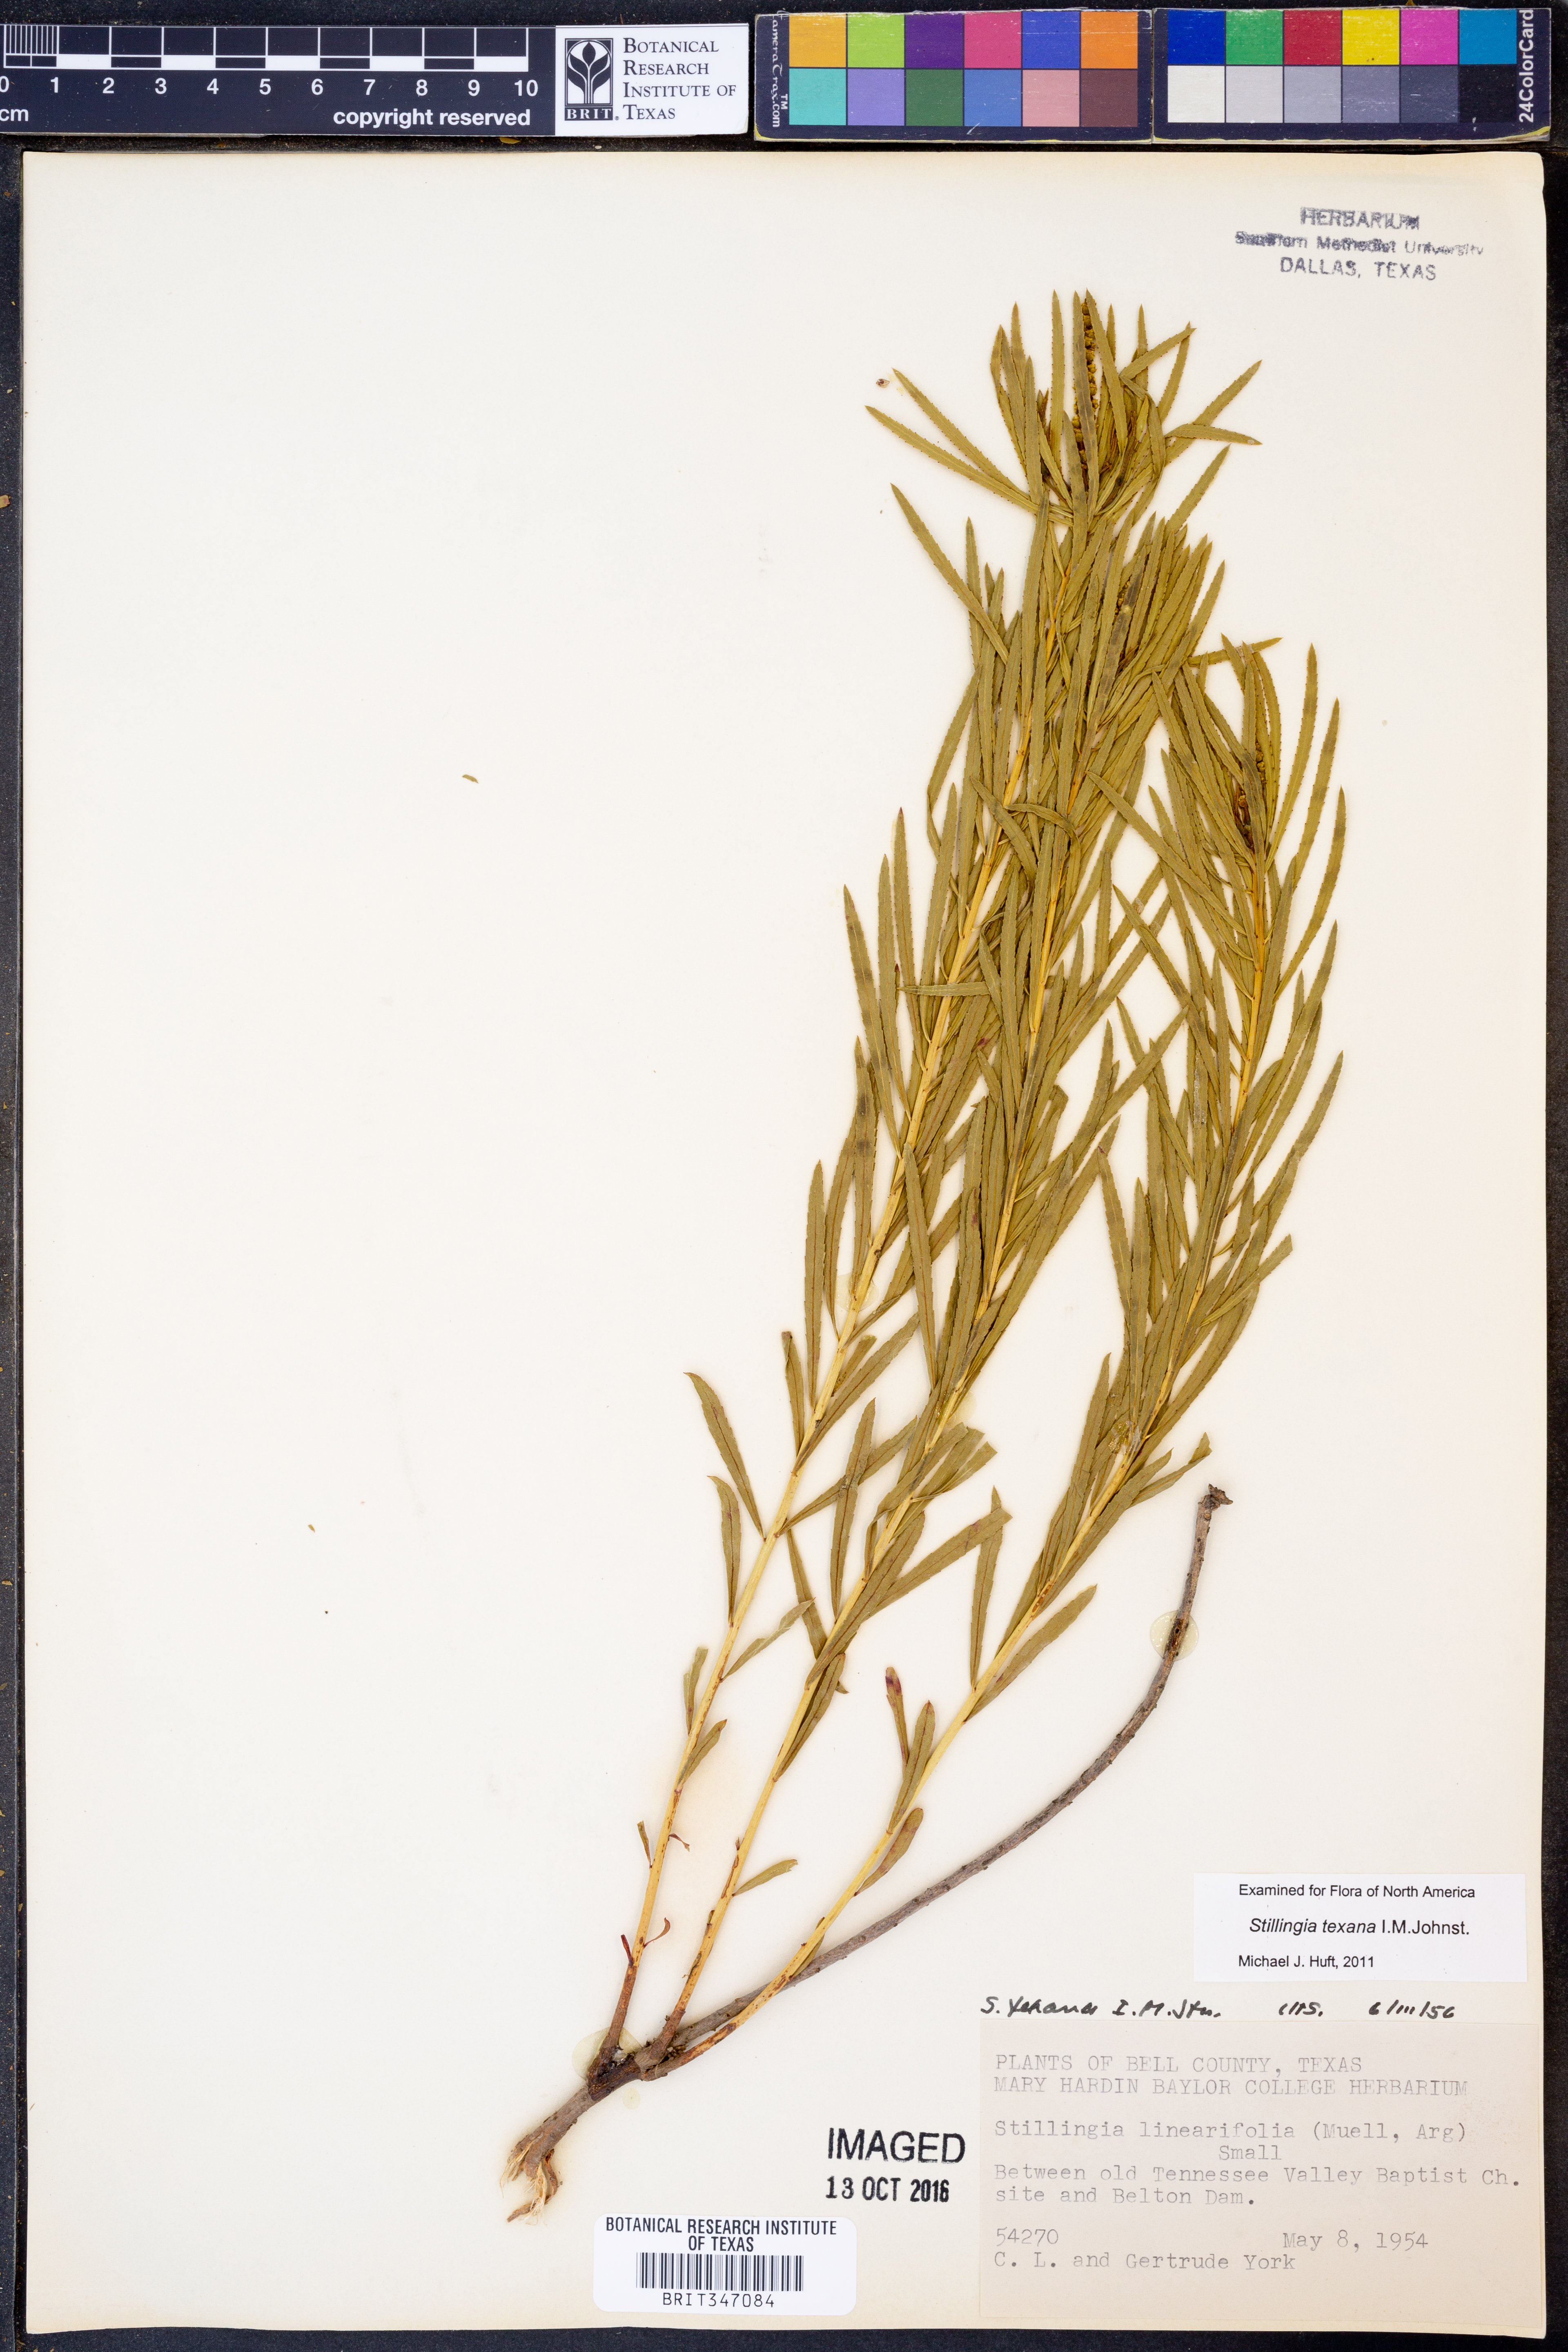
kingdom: Plantae
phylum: Tracheophyta
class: Magnoliopsida
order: Malpighiales
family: Euphorbiaceae
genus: Stillingia
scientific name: Stillingia texana
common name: Texas stillingia
